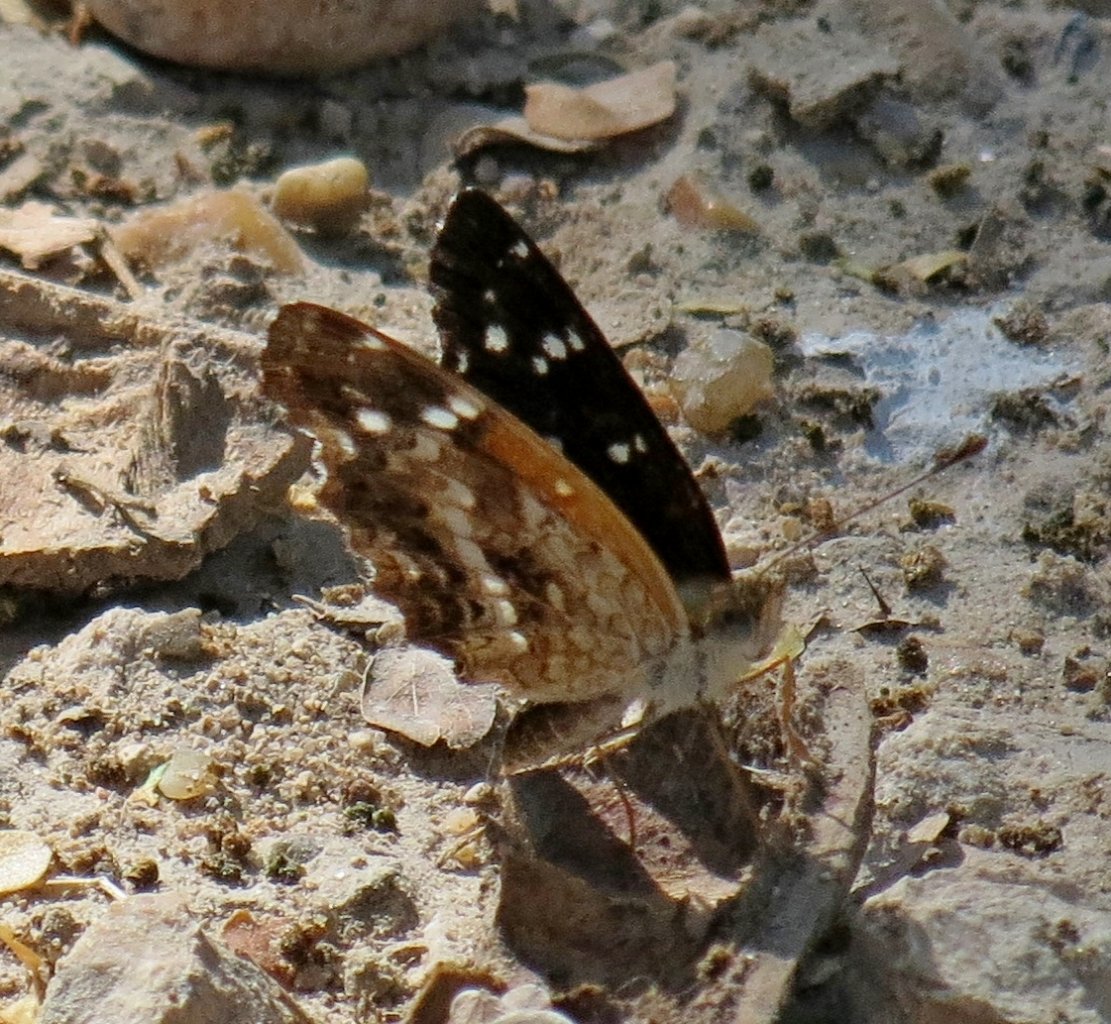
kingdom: Animalia
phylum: Arthropoda
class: Insecta
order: Lepidoptera
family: Nymphalidae
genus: Anthanassa
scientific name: Anthanassa texana
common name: Texan Crescent
